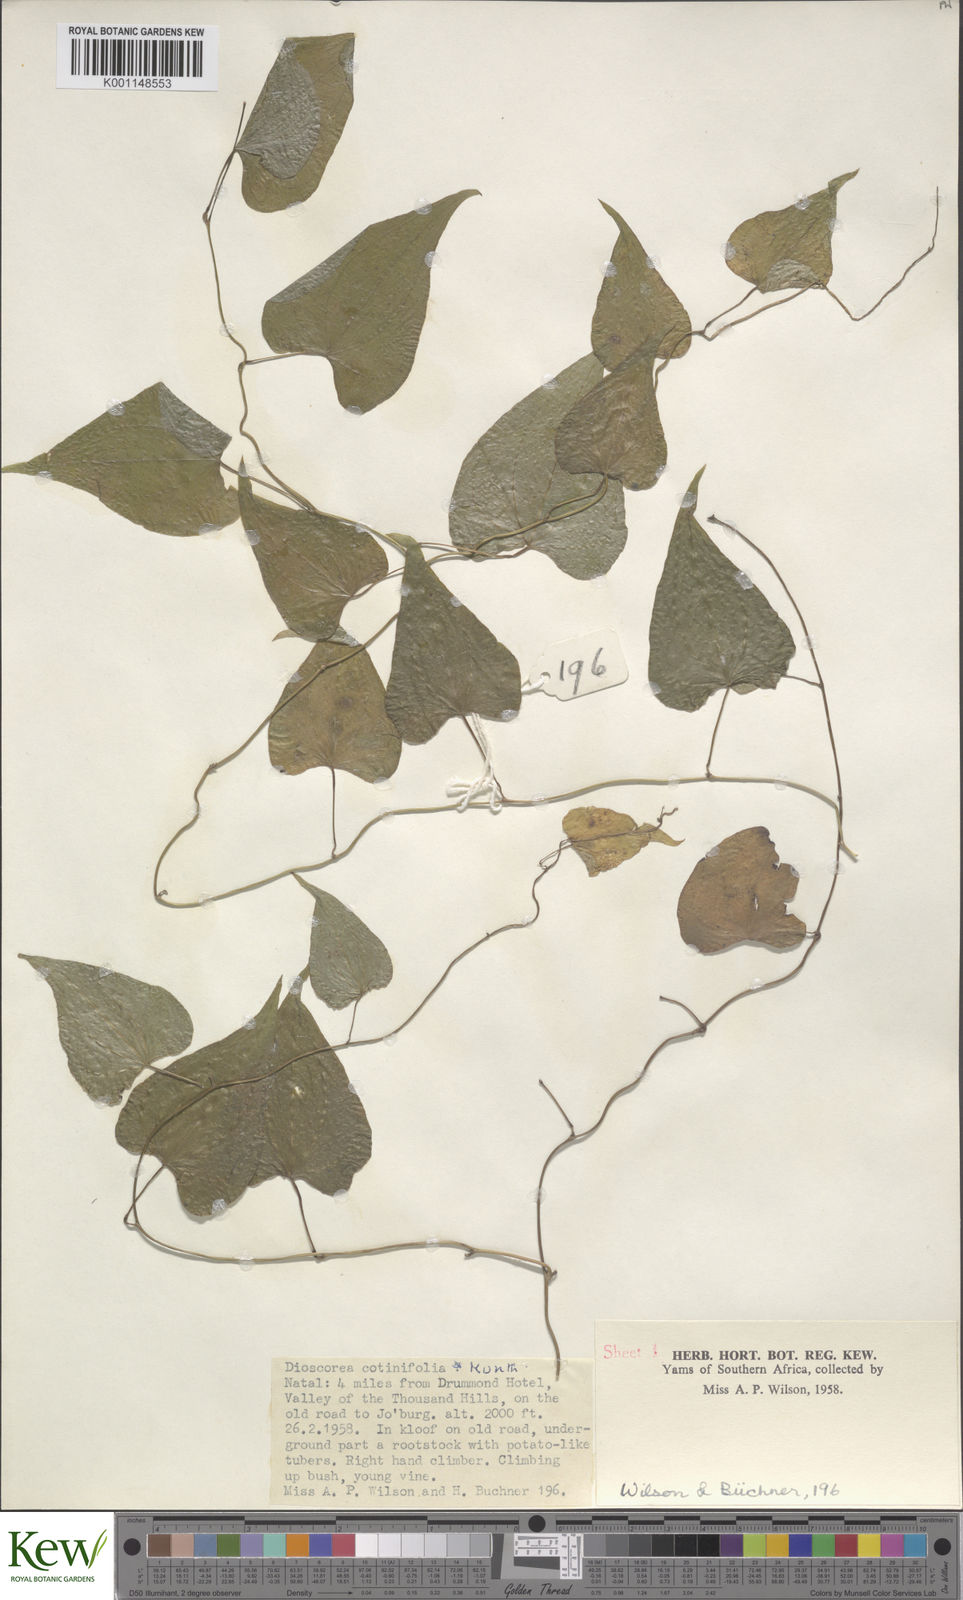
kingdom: Plantae
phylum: Tracheophyta
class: Liliopsida
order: Dioscoreales
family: Dioscoreaceae
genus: Dioscorea
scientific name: Dioscorea cotinifolia
